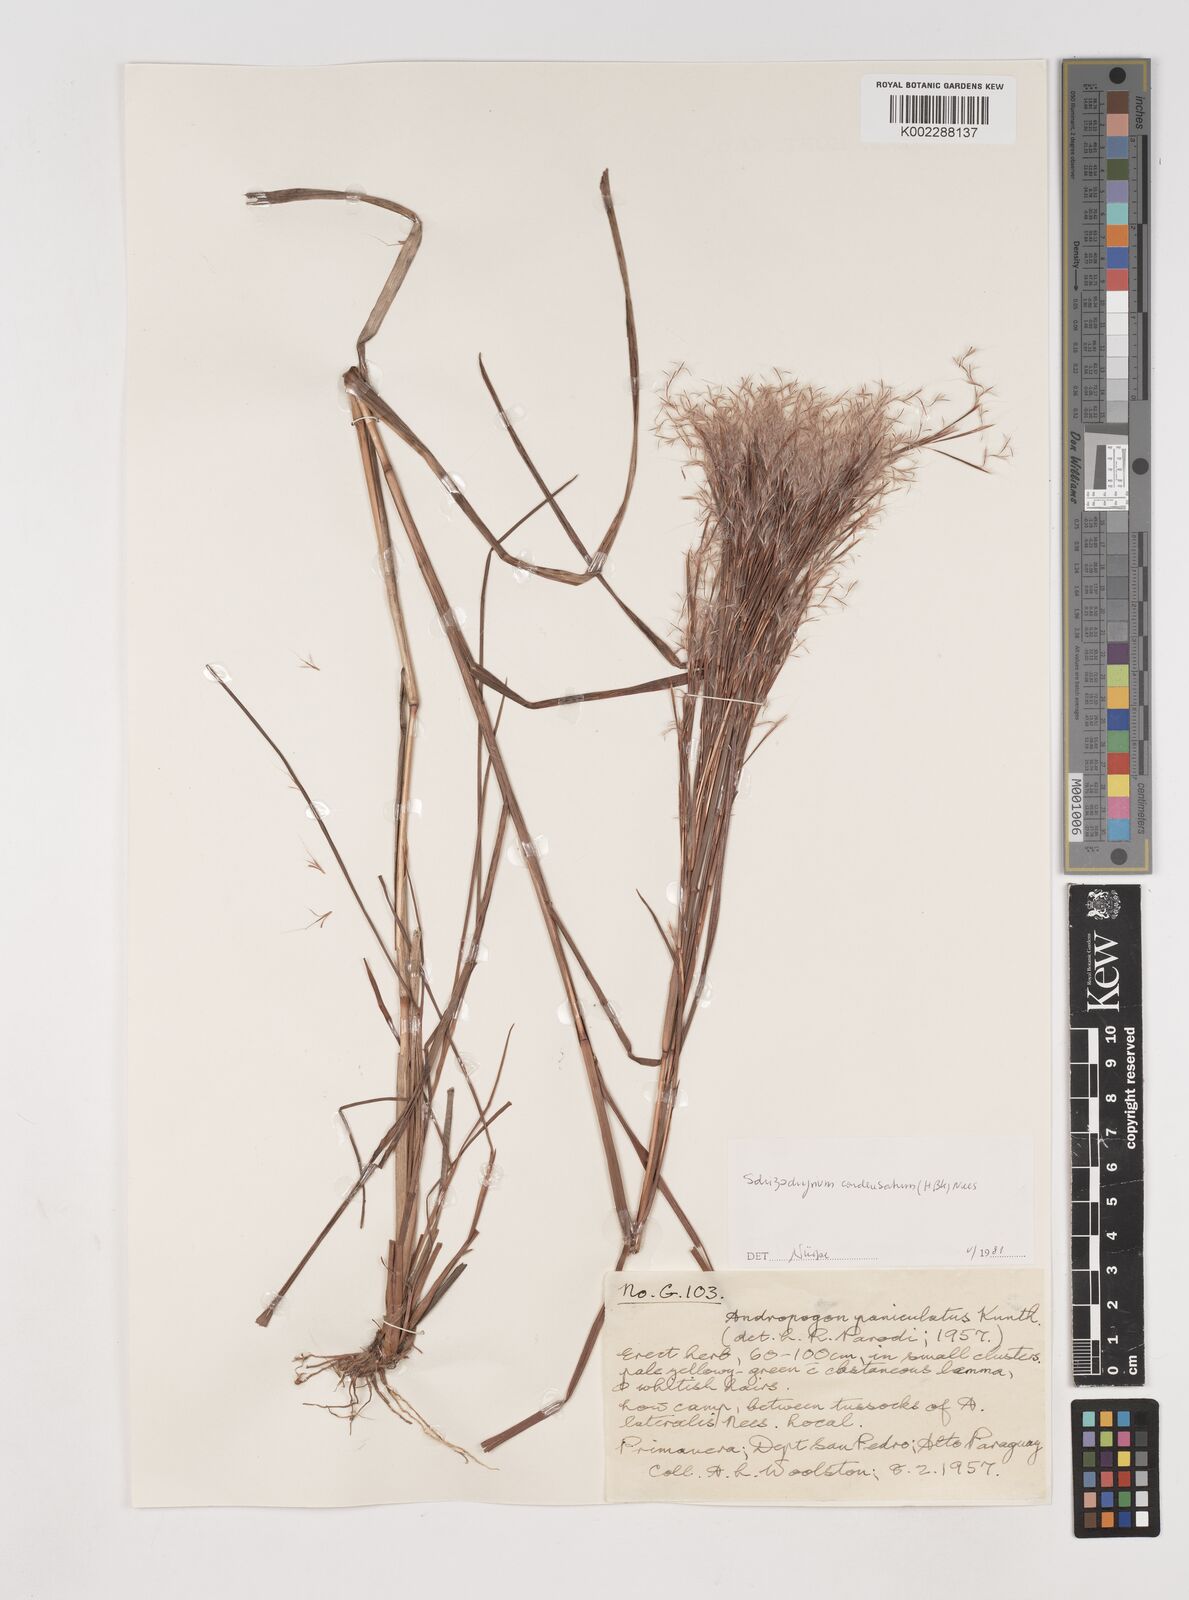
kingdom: Plantae
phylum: Tracheophyta
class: Liliopsida
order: Poales
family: Poaceae
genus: Schizachyrium
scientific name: Schizachyrium microstachyum
